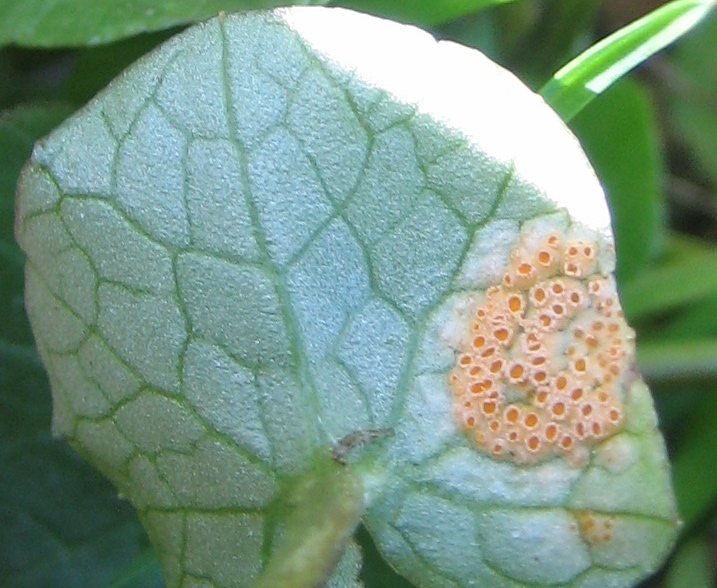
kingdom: Fungi
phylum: Basidiomycota
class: Pucciniomycetes
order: Pucciniales
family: Pucciniaceae
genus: Uromyces
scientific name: Uromyces dactylidis
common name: ranunkel-encellerust
